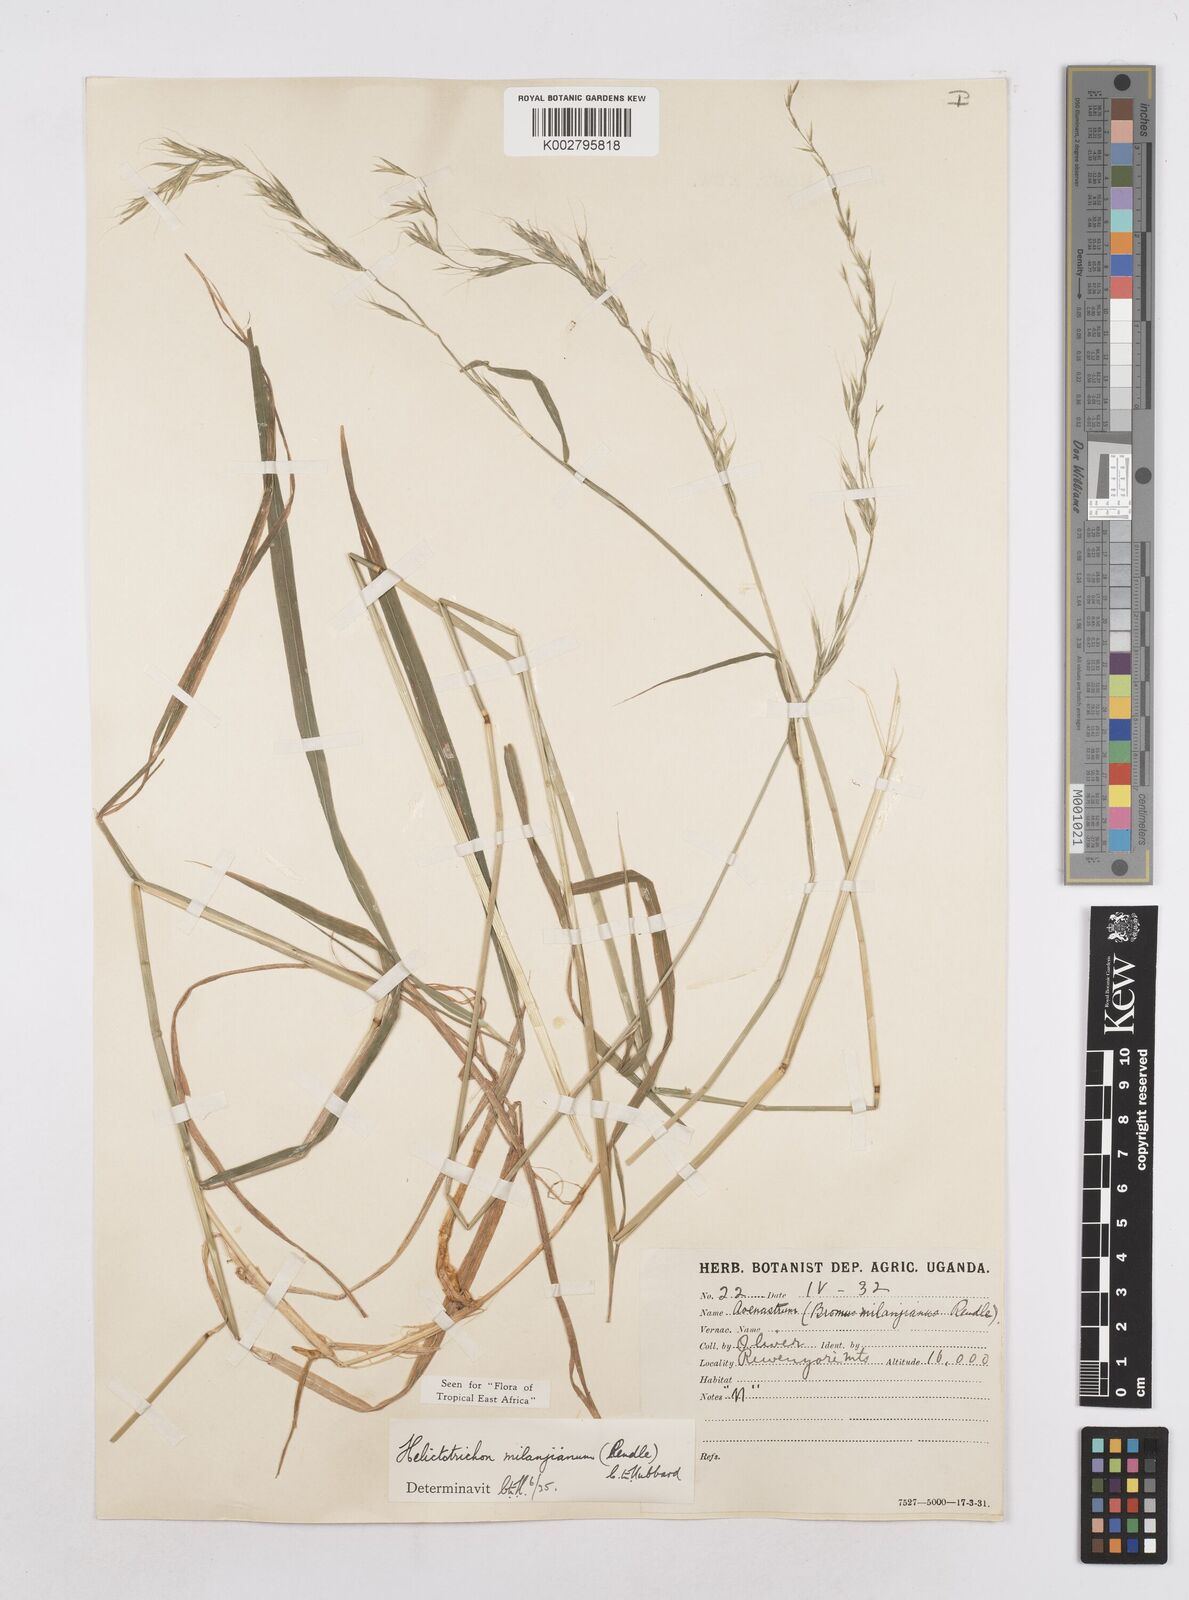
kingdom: Plantae
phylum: Tracheophyta
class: Liliopsida
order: Poales
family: Poaceae
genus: Trisetopsis
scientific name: Trisetopsis milanjiana
